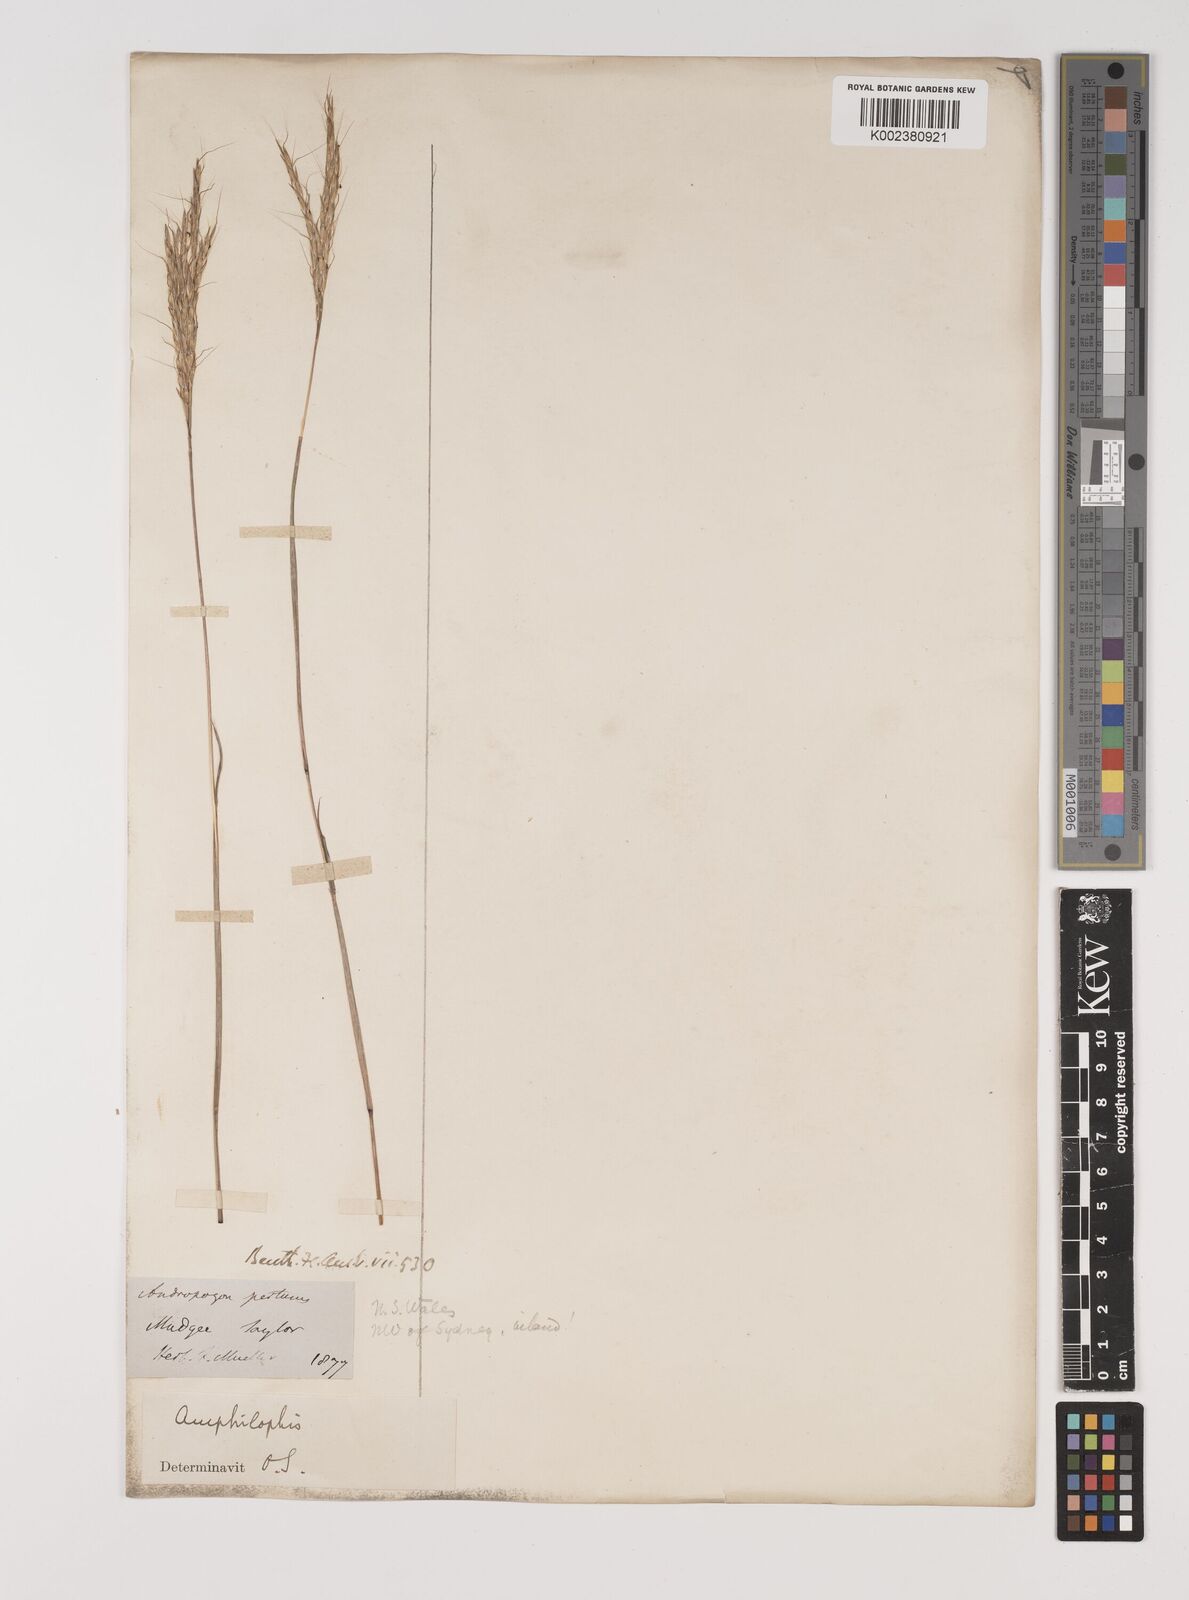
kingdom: Plantae
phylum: Tracheophyta
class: Liliopsida
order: Poales
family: Poaceae
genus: Bothriochloa
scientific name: Bothriochloa decipiens
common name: Pitted-bluegrass
